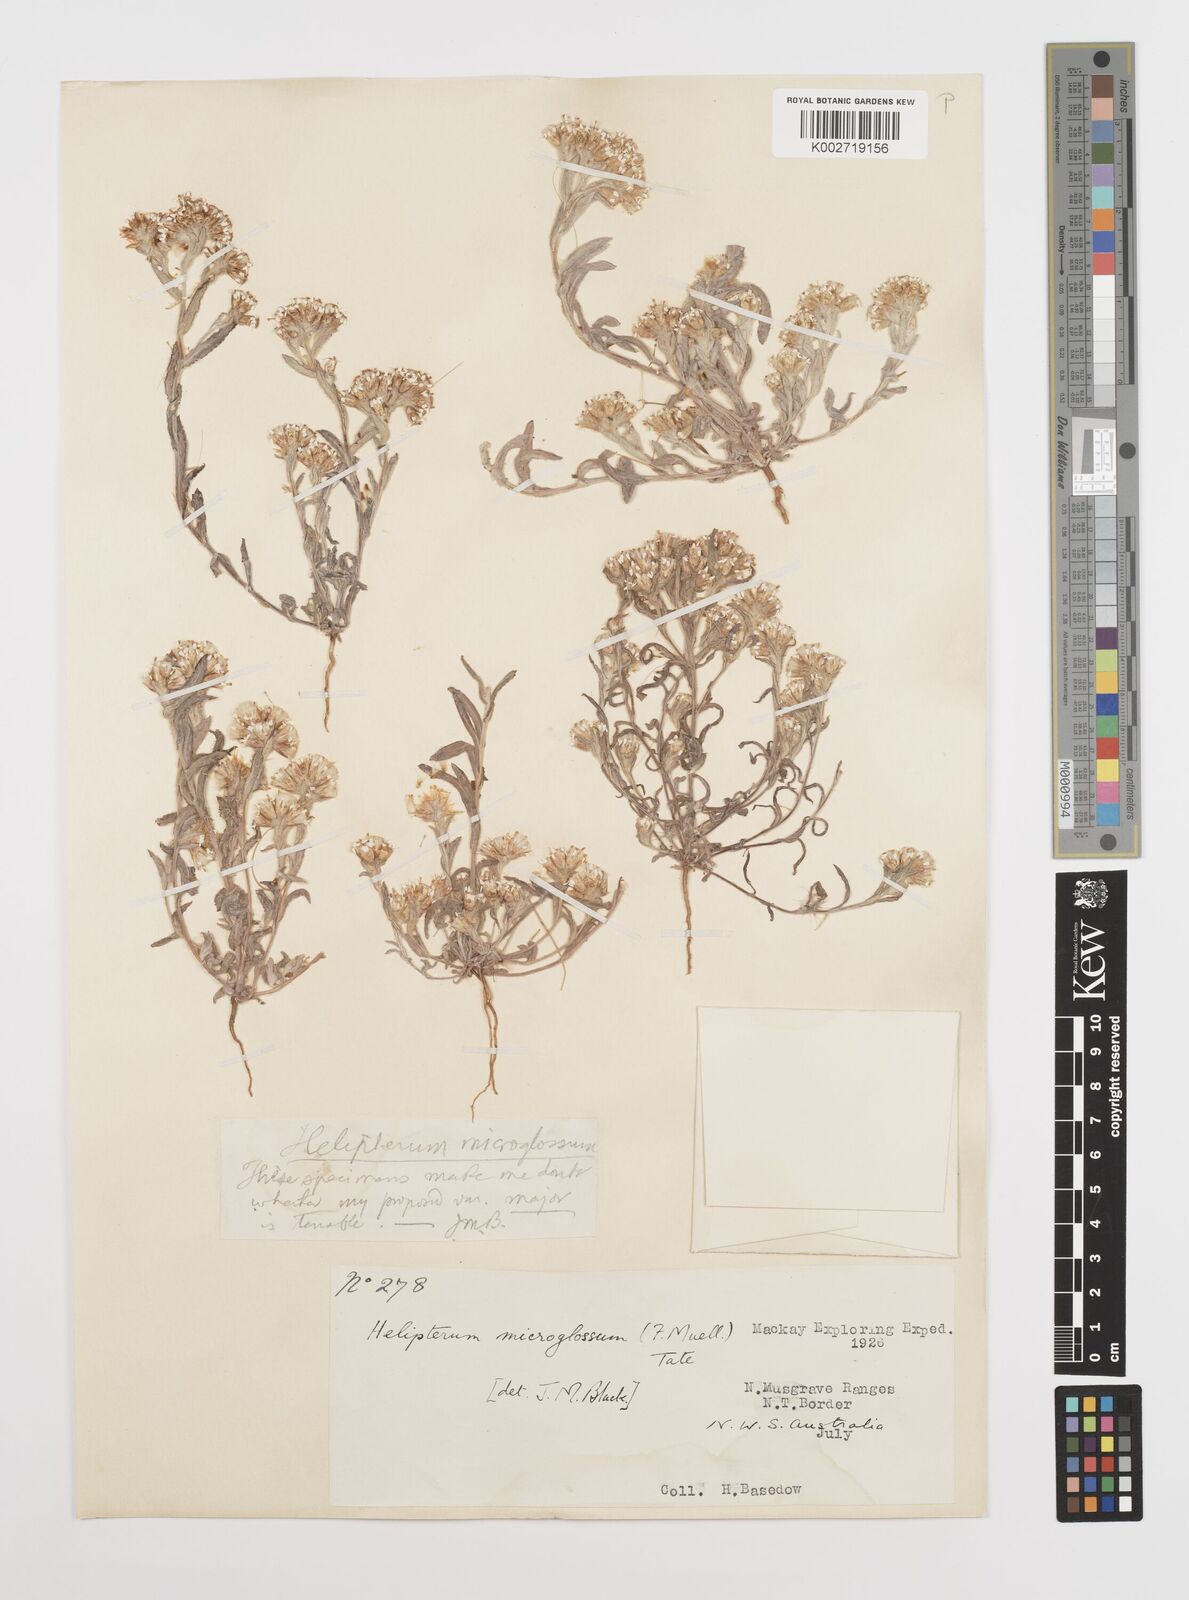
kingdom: Plantae
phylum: Tracheophyta
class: Magnoliopsida
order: Asterales
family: Asteraceae
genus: Rhodanthe
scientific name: Rhodanthe microglossa
